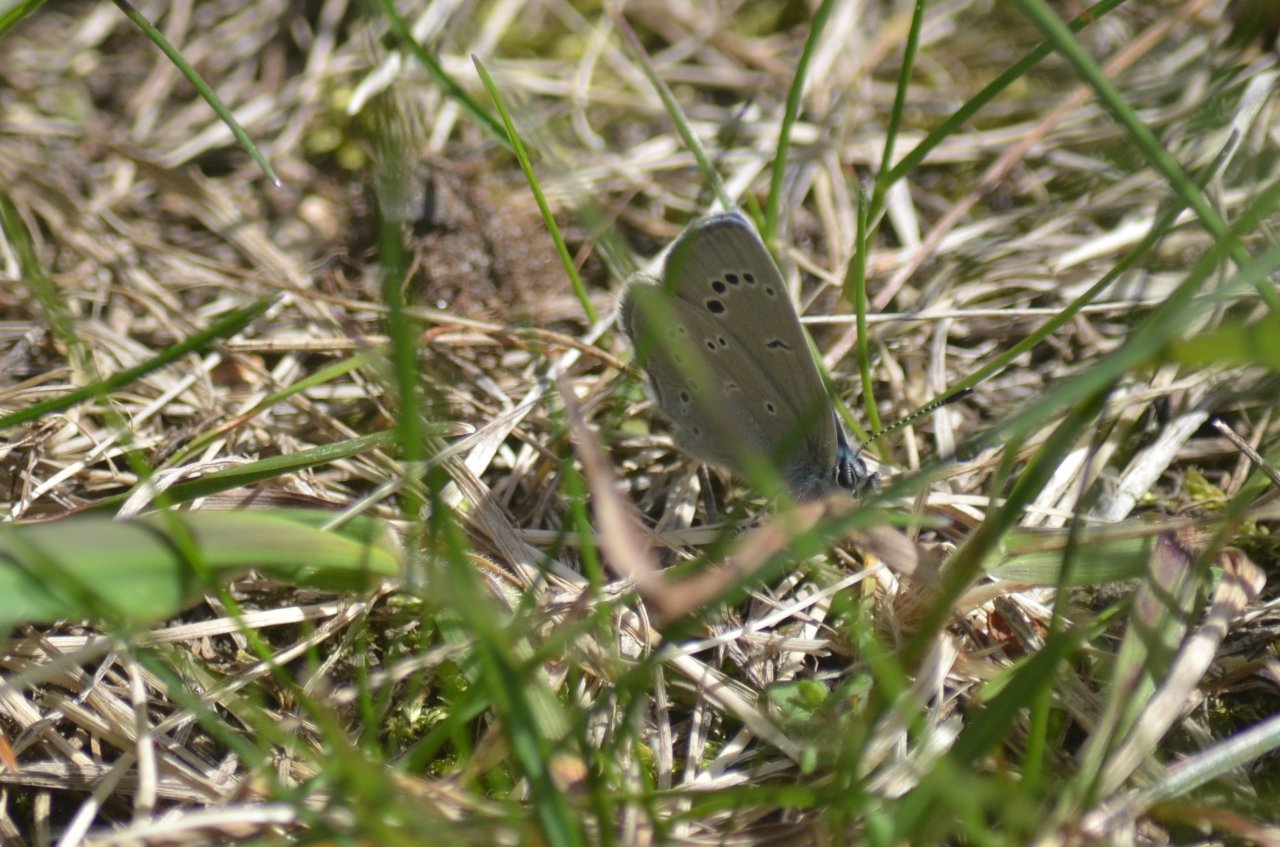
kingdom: Animalia
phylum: Arthropoda
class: Insecta
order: Lepidoptera
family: Lycaenidae
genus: Glaucopsyche
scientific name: Glaucopsyche lygdamus
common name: Silvery Blue
